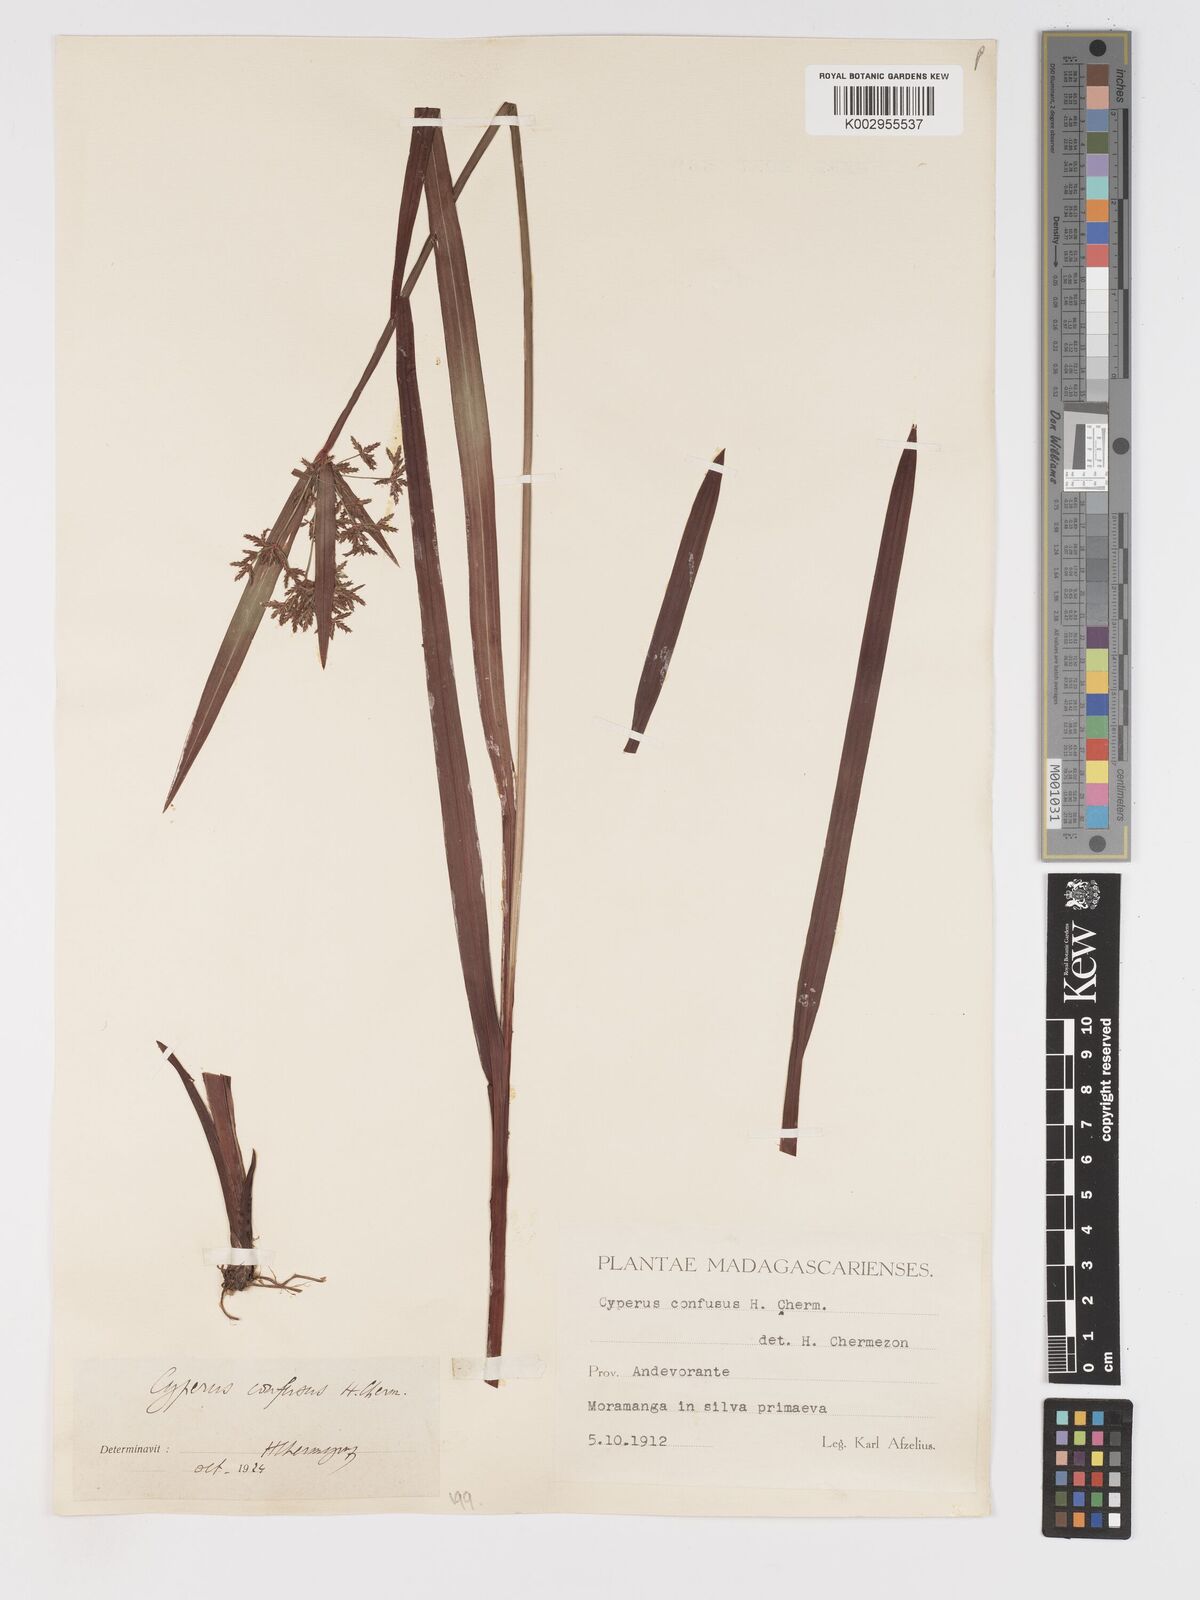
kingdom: Plantae
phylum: Tracheophyta
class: Liliopsida
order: Poales
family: Cyperaceae
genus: Cyperus
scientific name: Cyperus longifolius
